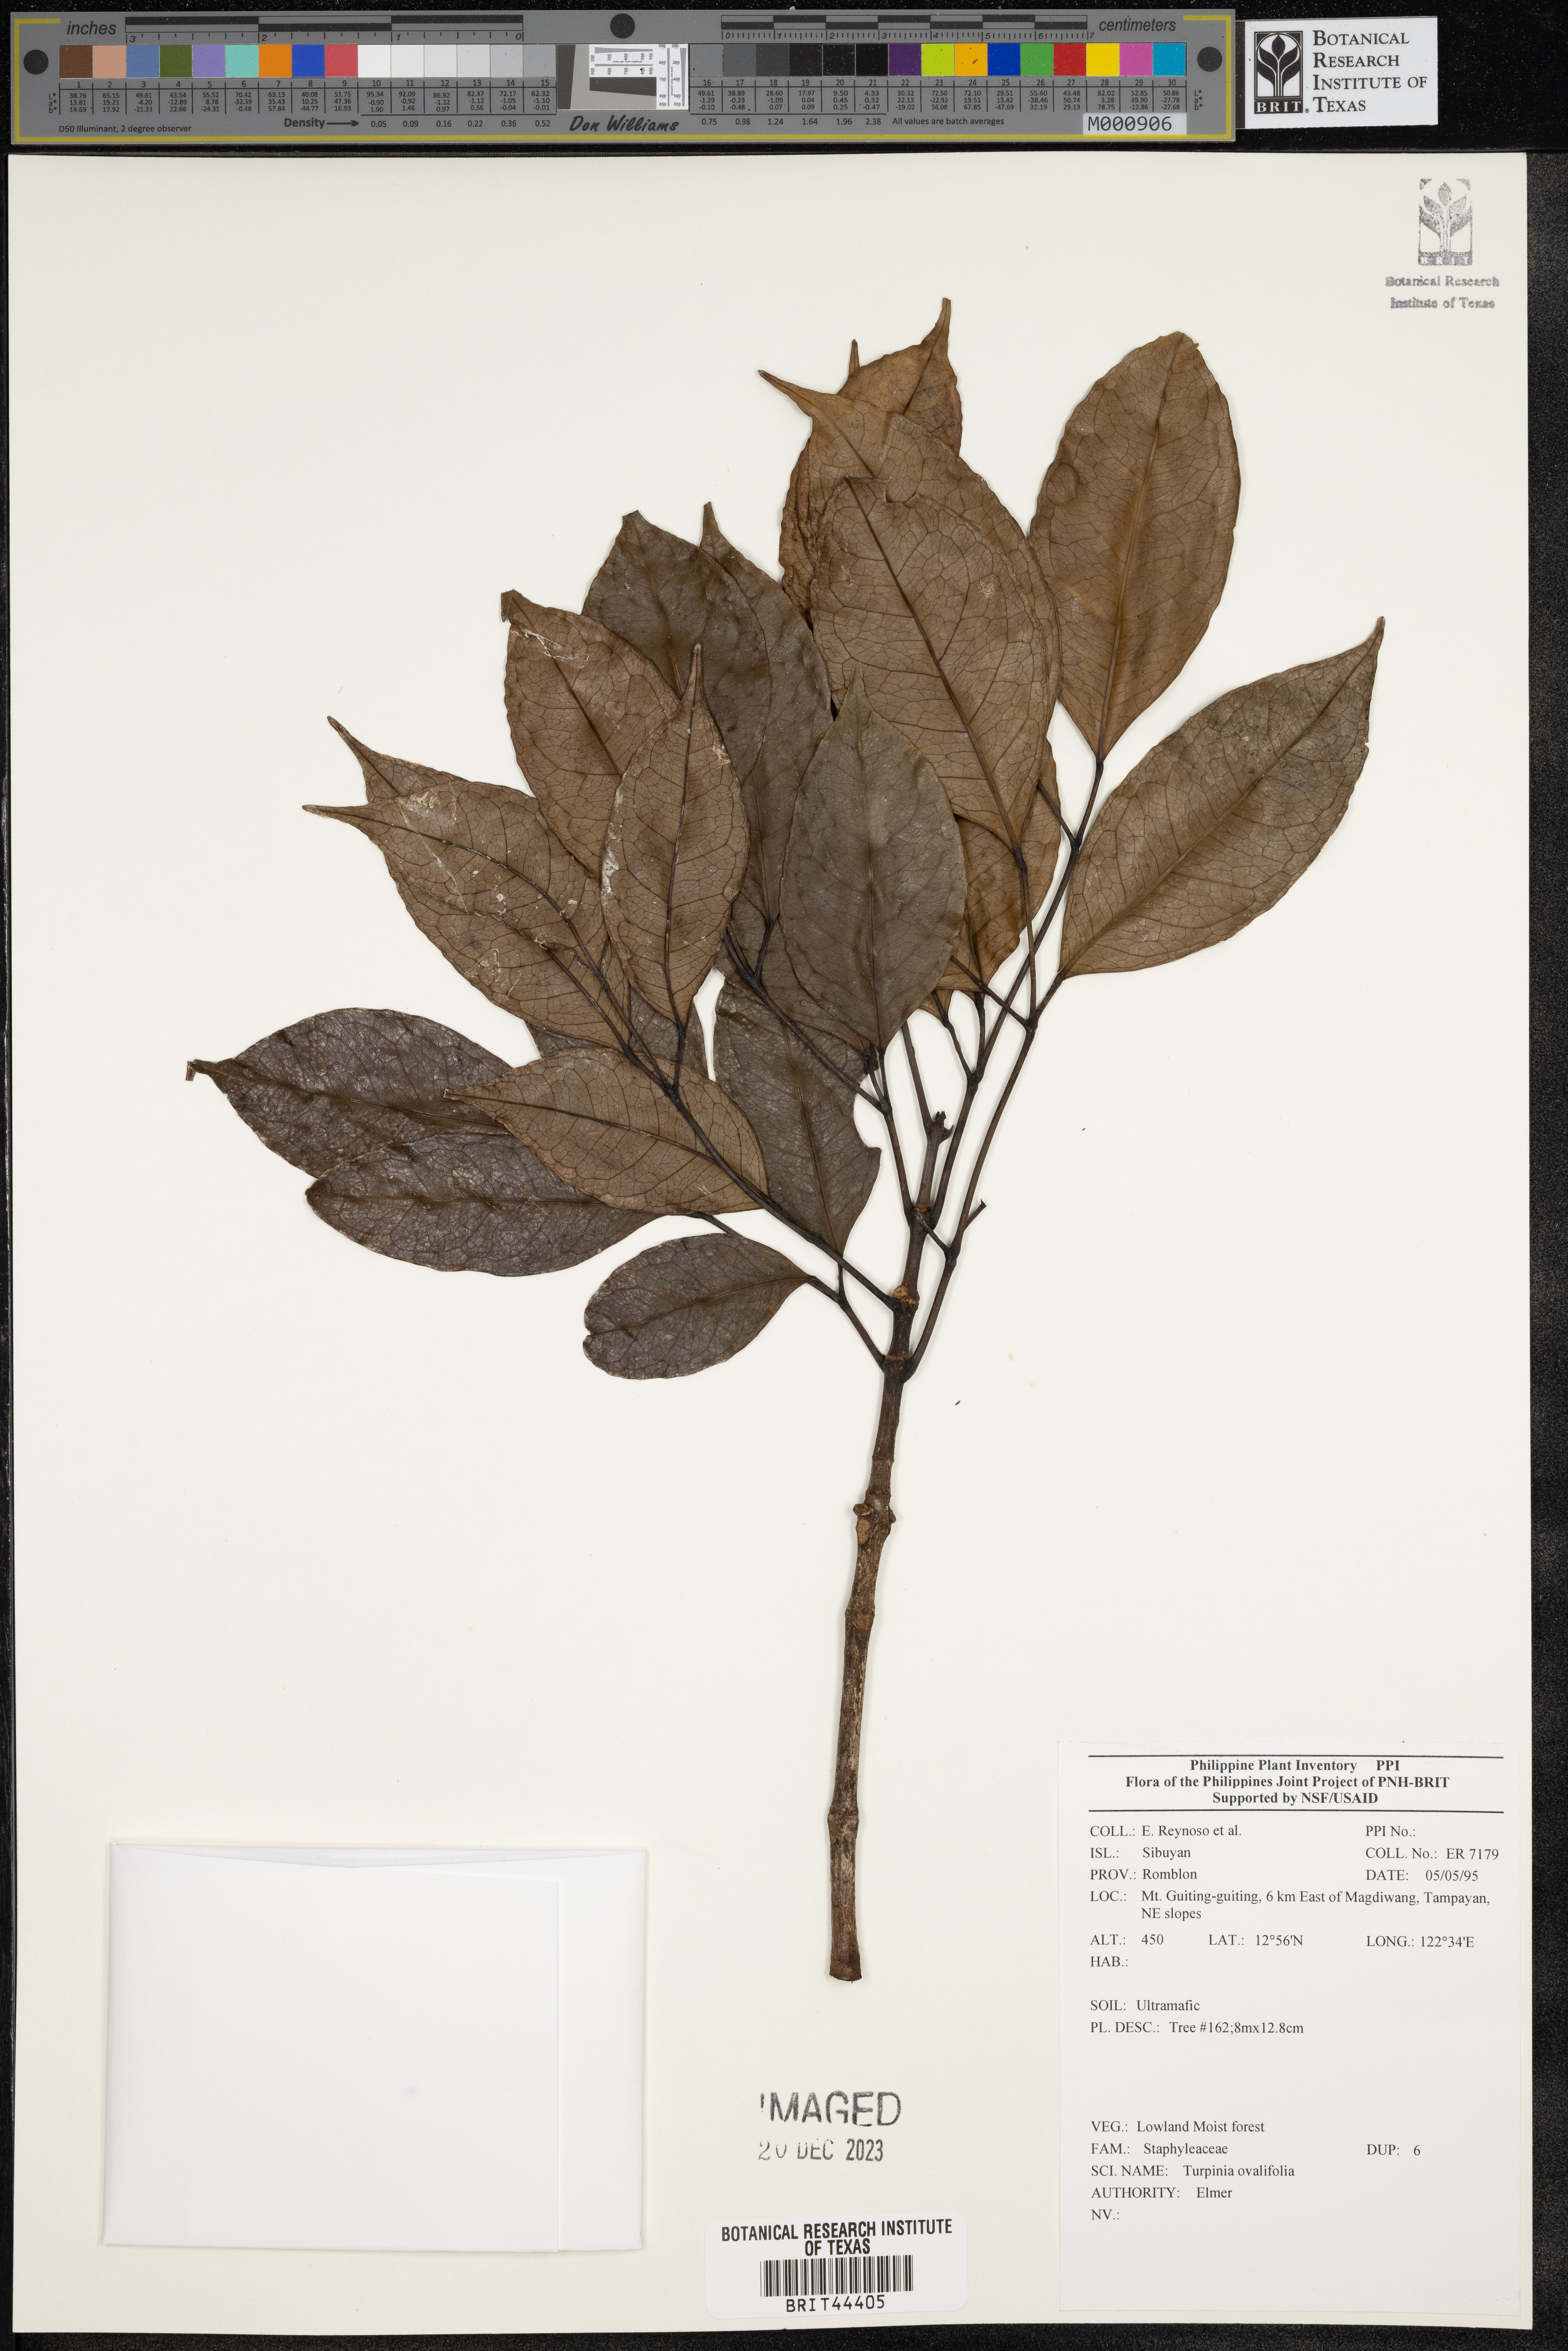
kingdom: Plantae
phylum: Tracheophyta
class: Magnoliopsida
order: Crossosomatales
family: Staphyleaceae
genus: Turpinia
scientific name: Turpinia
